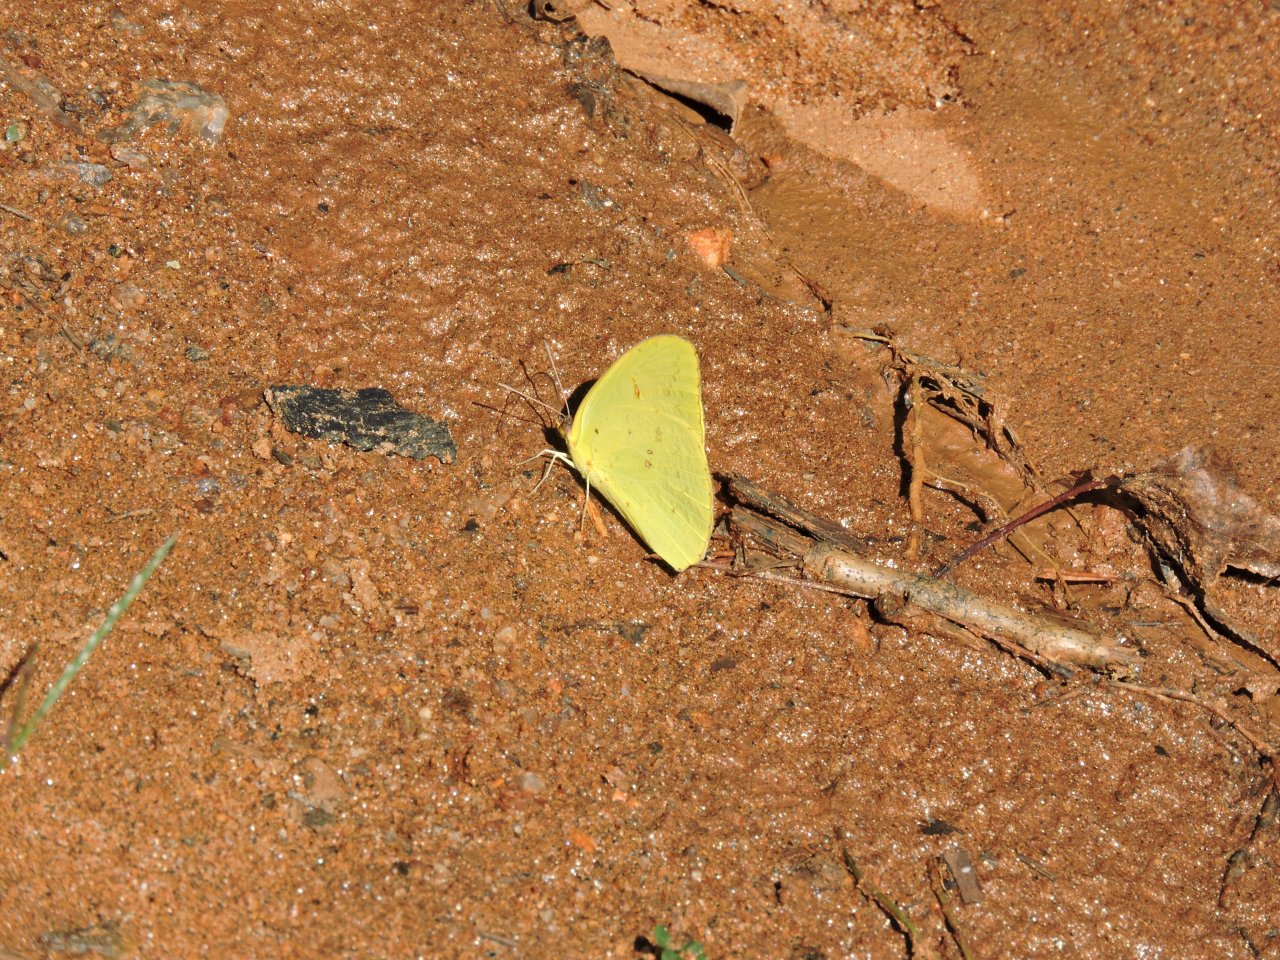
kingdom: Animalia
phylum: Arthropoda
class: Insecta
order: Lepidoptera
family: Pieridae
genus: Phoebis
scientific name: Phoebis sennae
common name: Cloudless Sulphur
